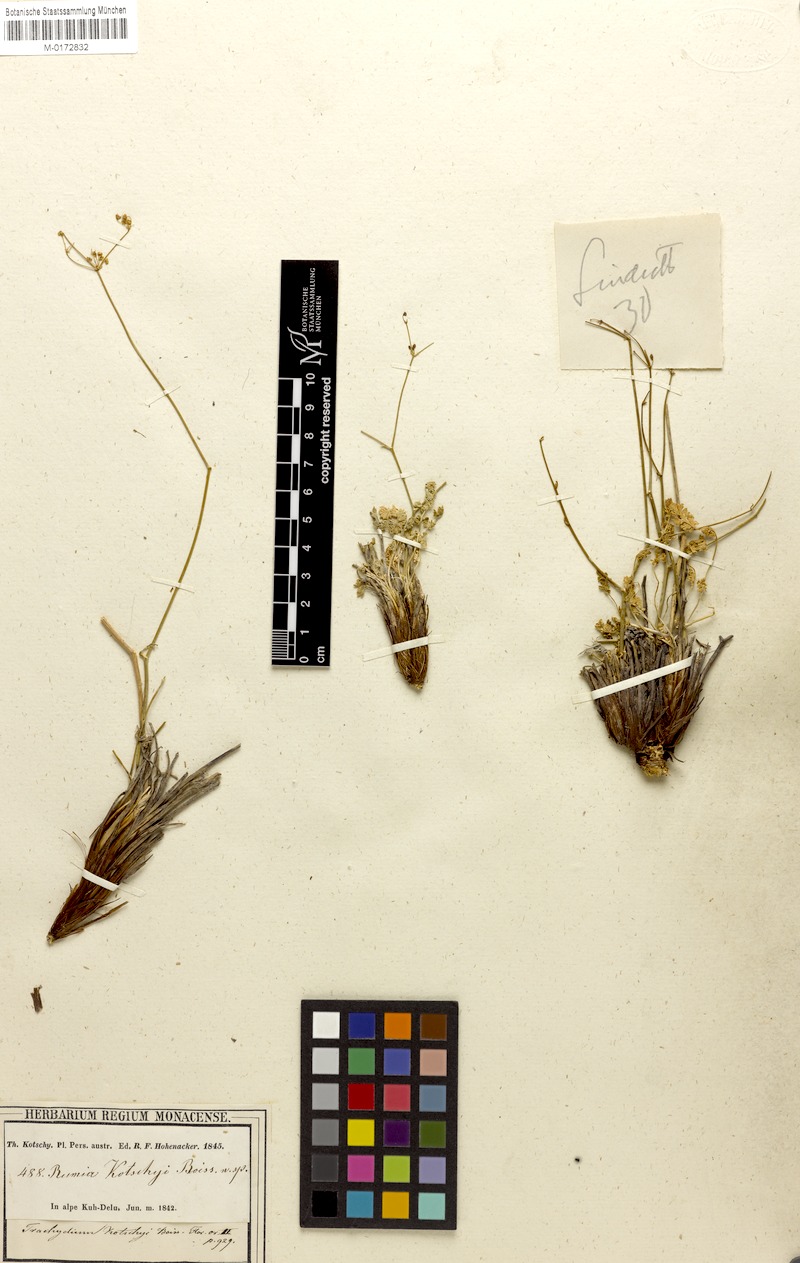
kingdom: Plantae
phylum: Tracheophyta
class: Magnoliopsida
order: Apiales
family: Apiaceae
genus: Pseudotrachydium
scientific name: Pseudotrachydium kotschyi
